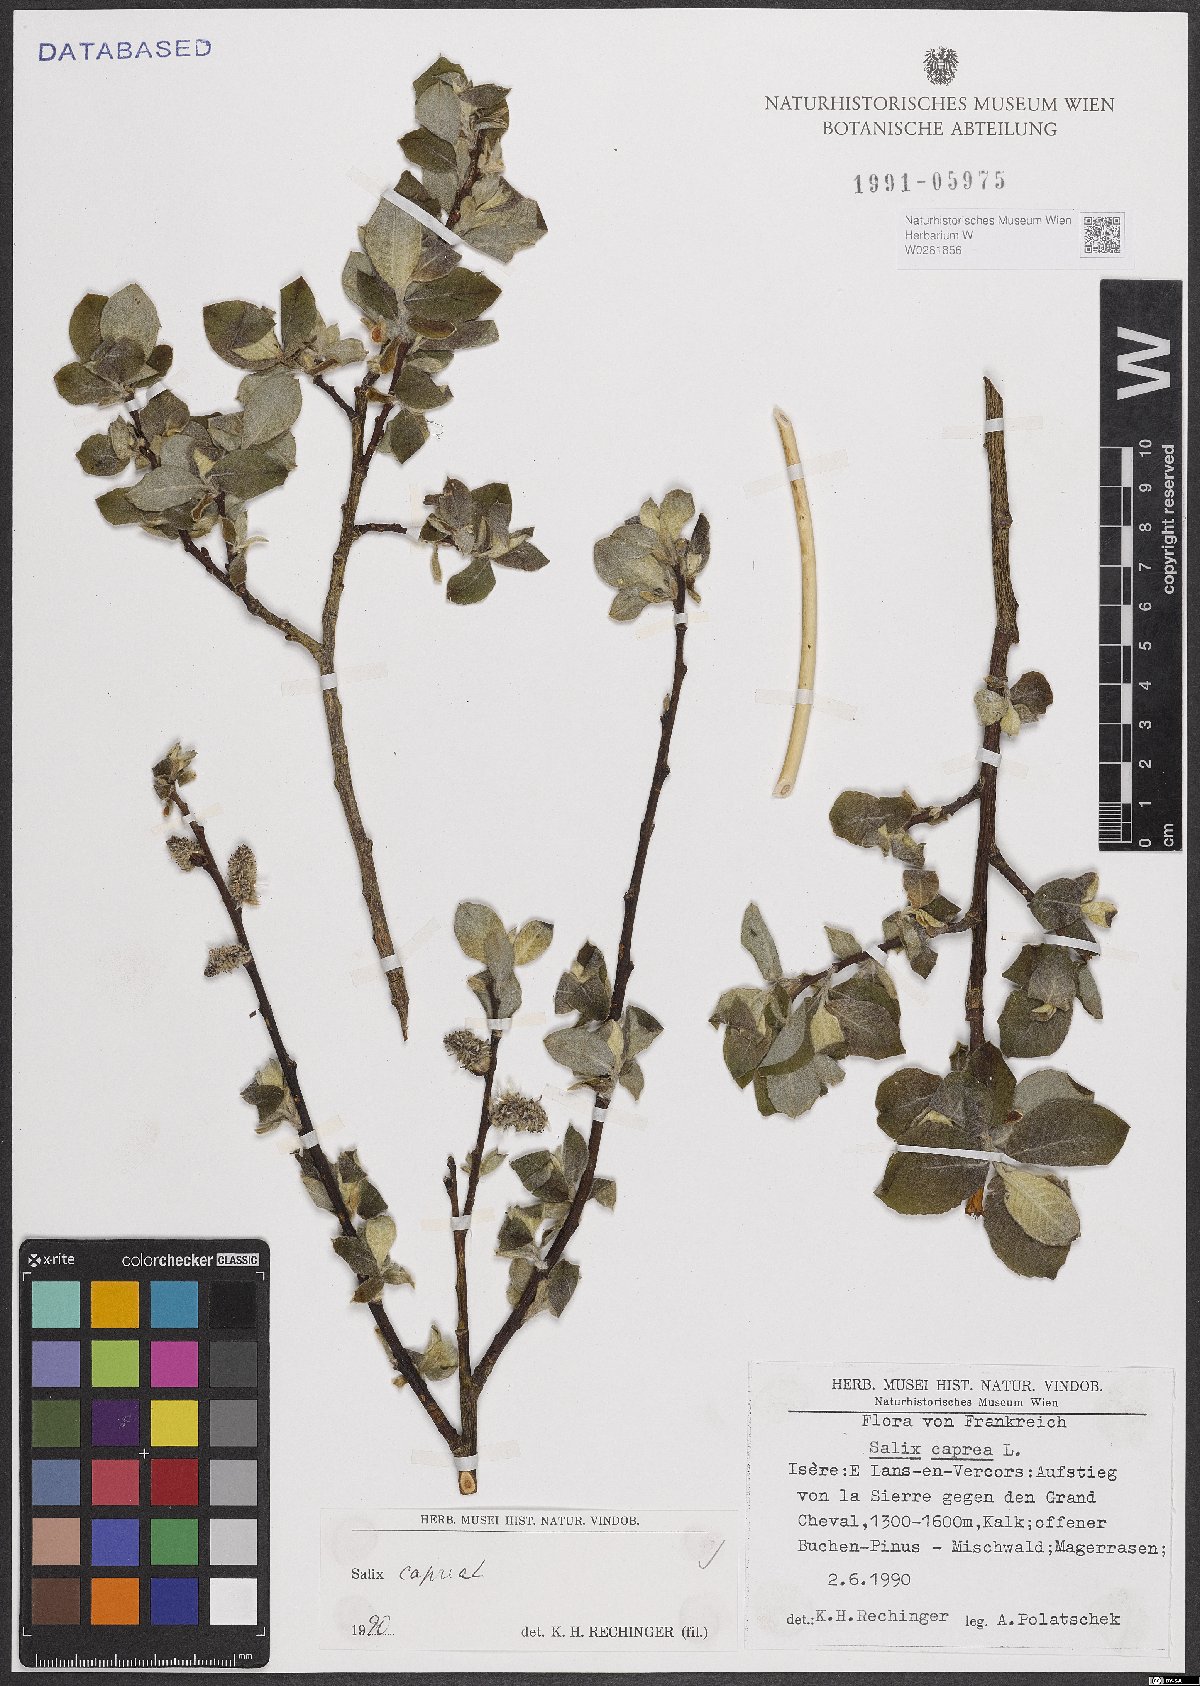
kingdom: Plantae
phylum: Tracheophyta
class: Magnoliopsida
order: Malpighiales
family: Salicaceae
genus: Salix
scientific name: Salix caprea
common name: Goat willow
